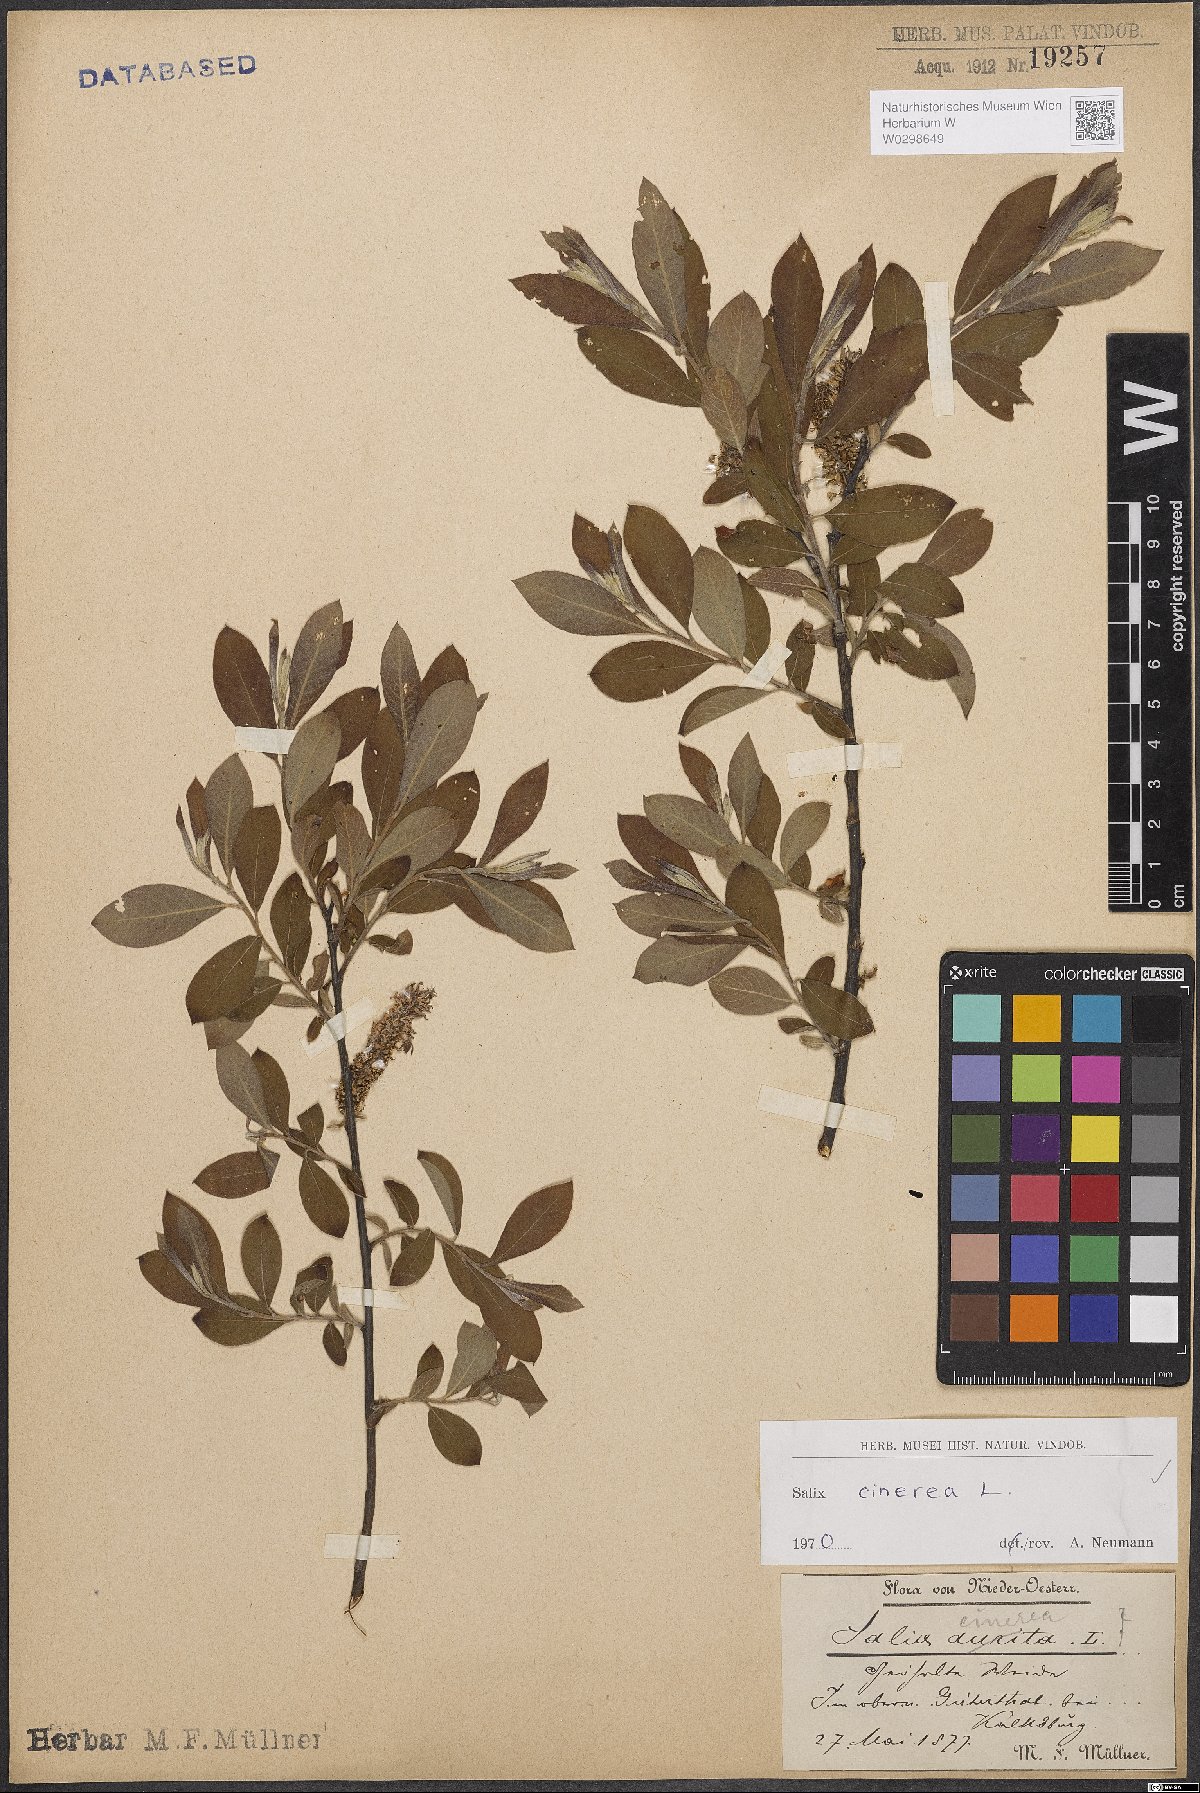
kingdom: Plantae
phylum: Tracheophyta
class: Magnoliopsida
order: Malpighiales
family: Salicaceae
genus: Salix
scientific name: Salix cinerea
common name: Common sallow
